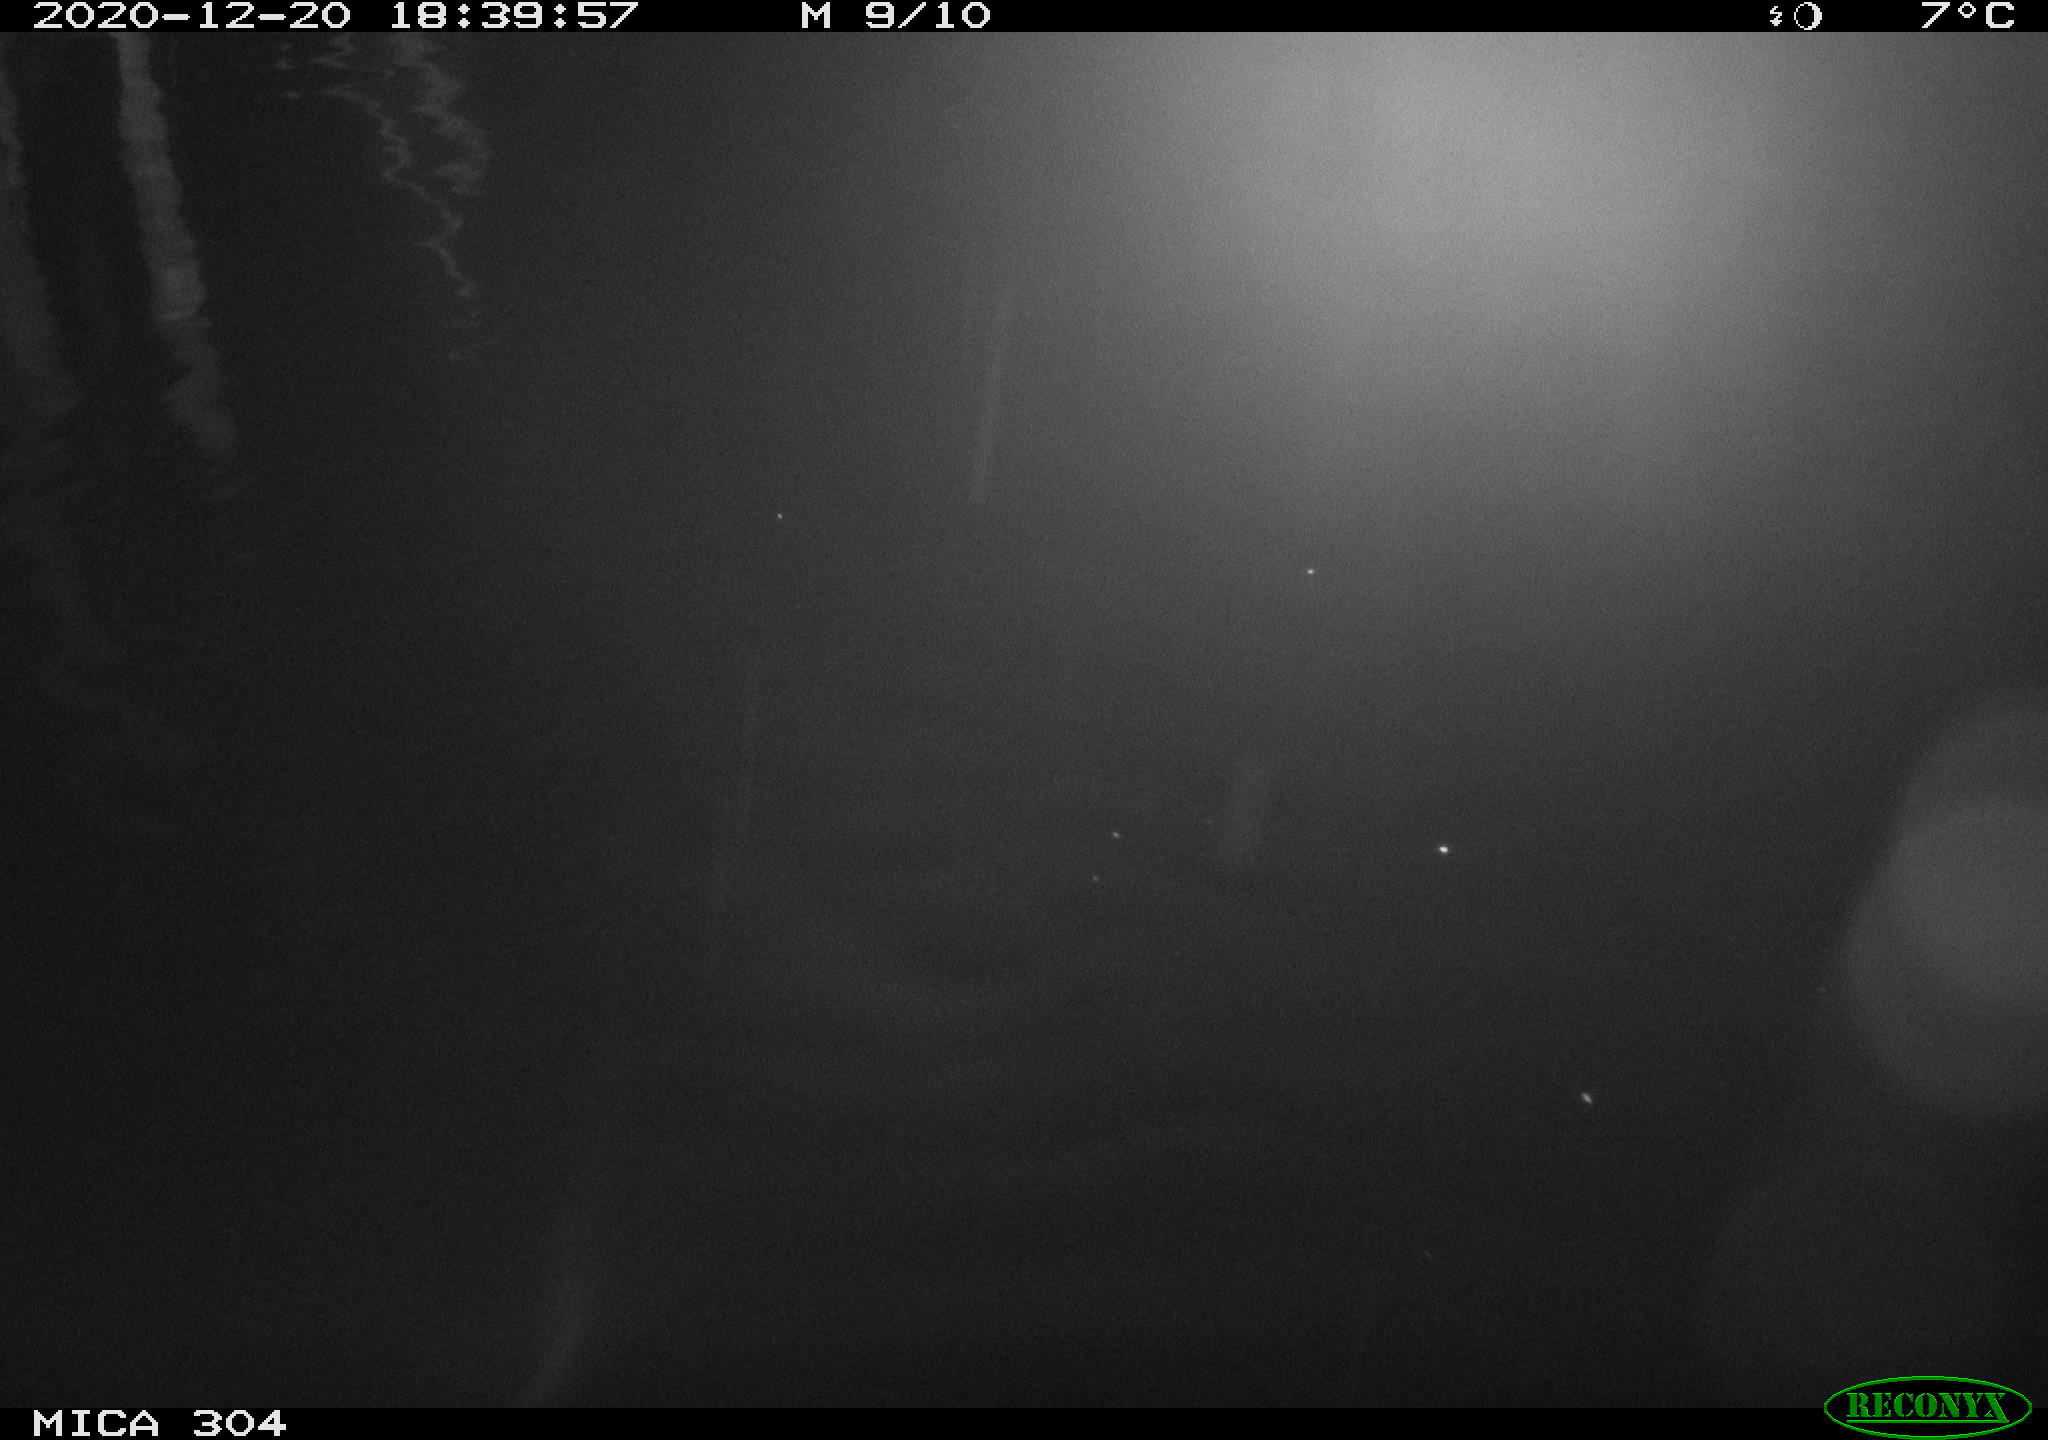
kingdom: Animalia
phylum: Chordata
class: Mammalia
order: Rodentia
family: Cricetidae
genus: Ondatra
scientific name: Ondatra zibethicus
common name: Muskrat
